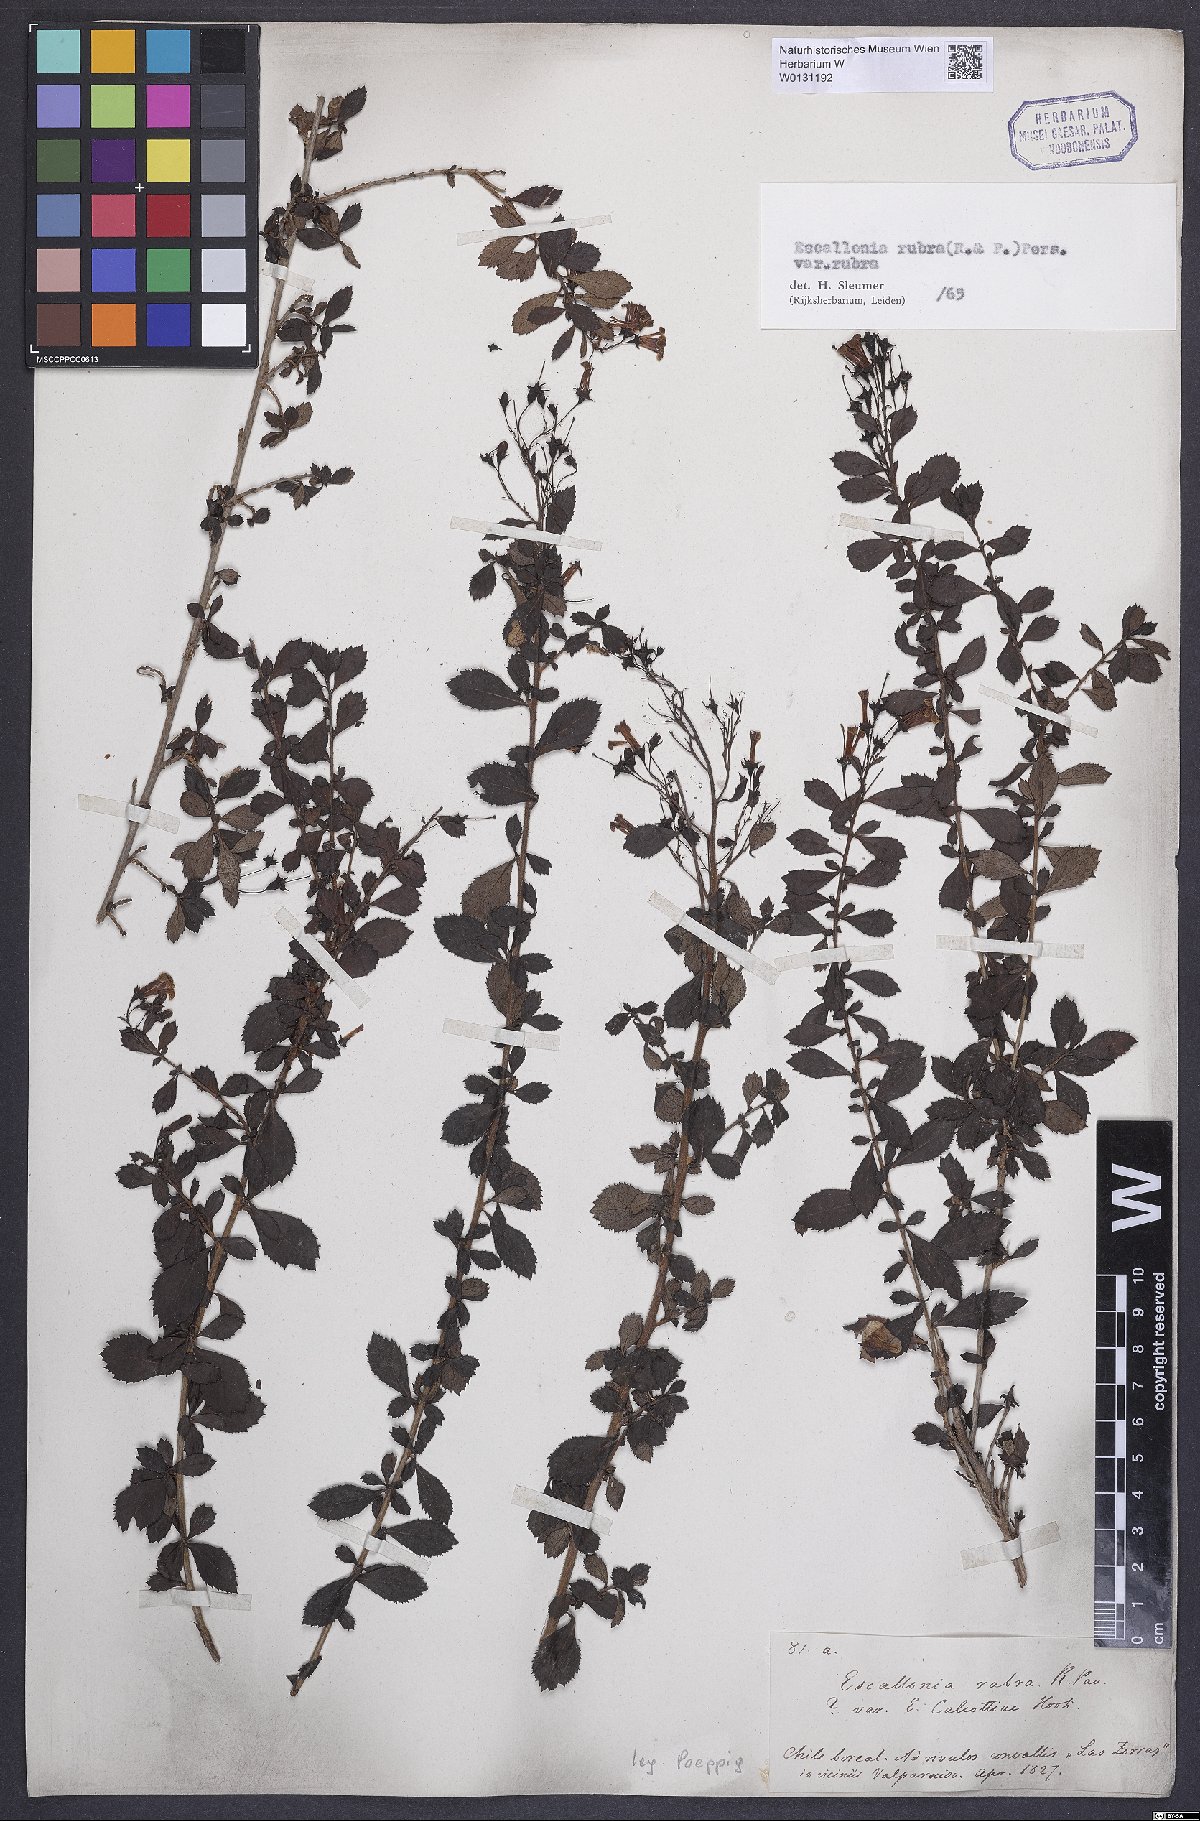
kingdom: Plantae
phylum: Tracheophyta
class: Magnoliopsida
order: Escalloniales
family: Escalloniaceae
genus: Escallonia
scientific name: Escallonia rubra
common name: Redclaws
